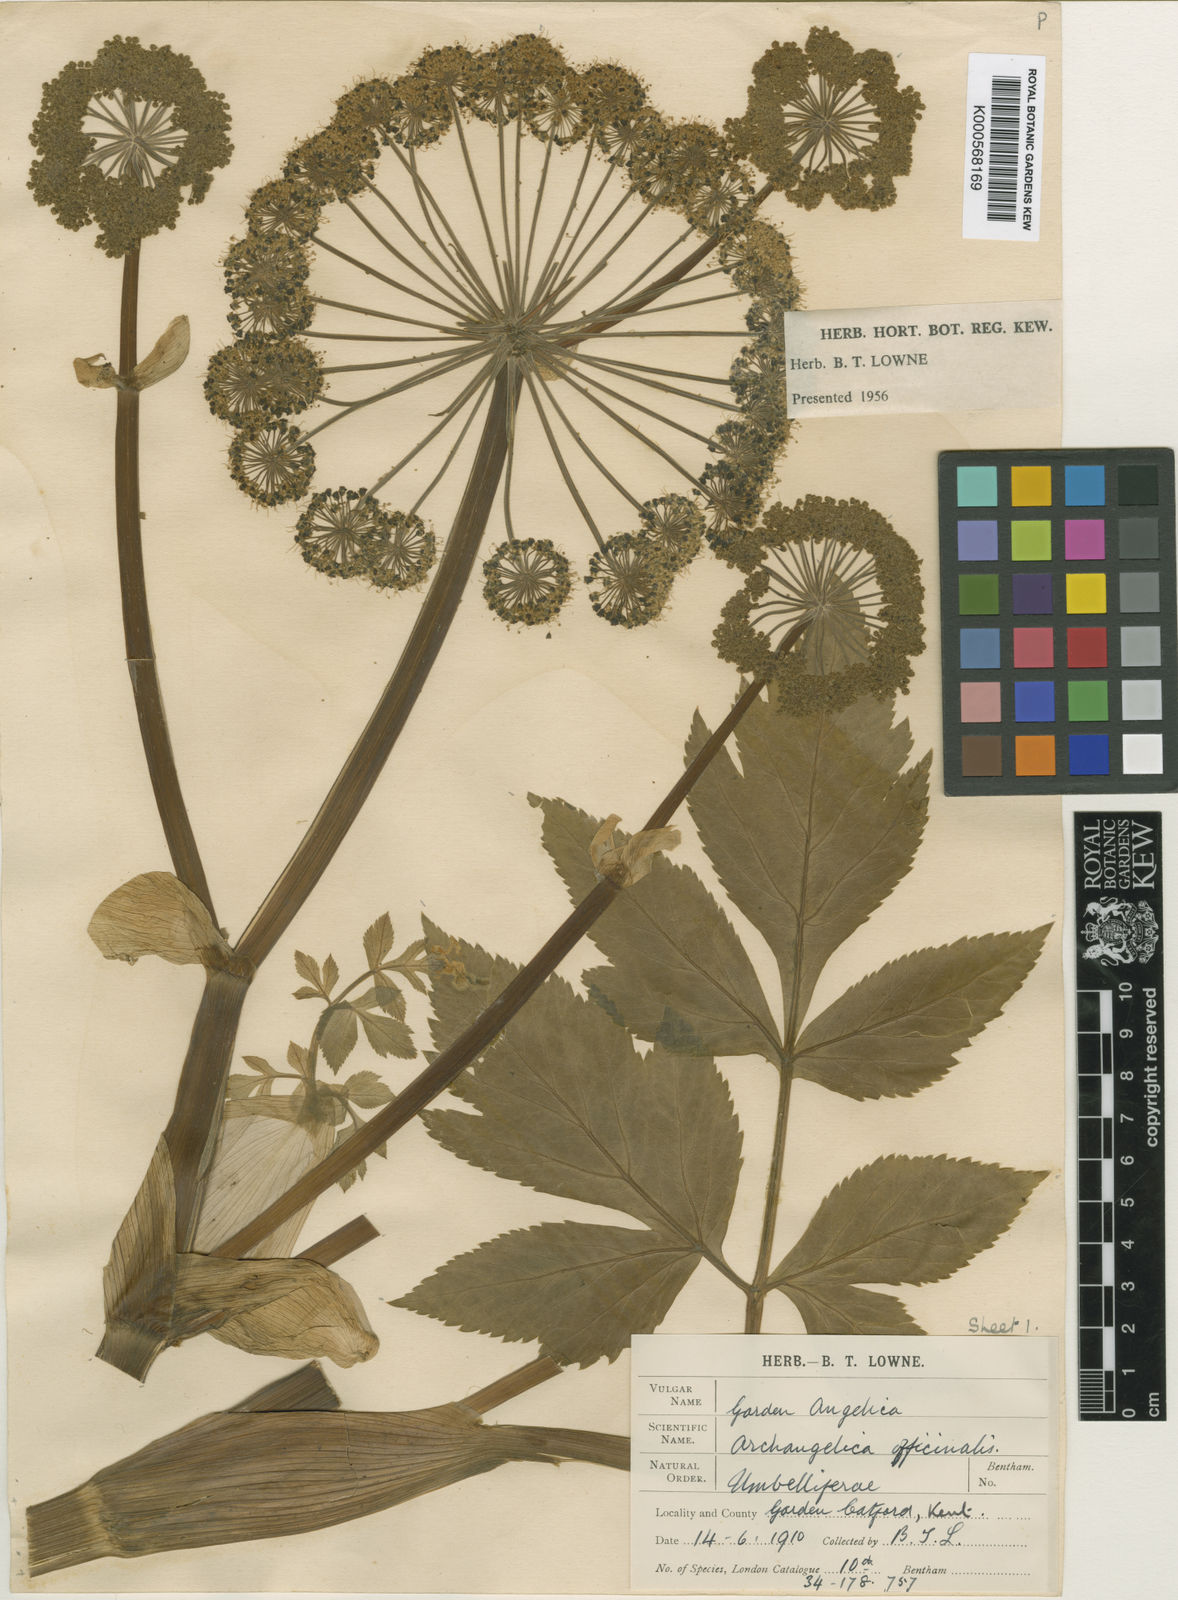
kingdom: Plantae
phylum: Tracheophyta
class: Magnoliopsida
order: Apiales
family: Apiaceae
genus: Angelica
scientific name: Angelica archangelica
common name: Garden angelica
